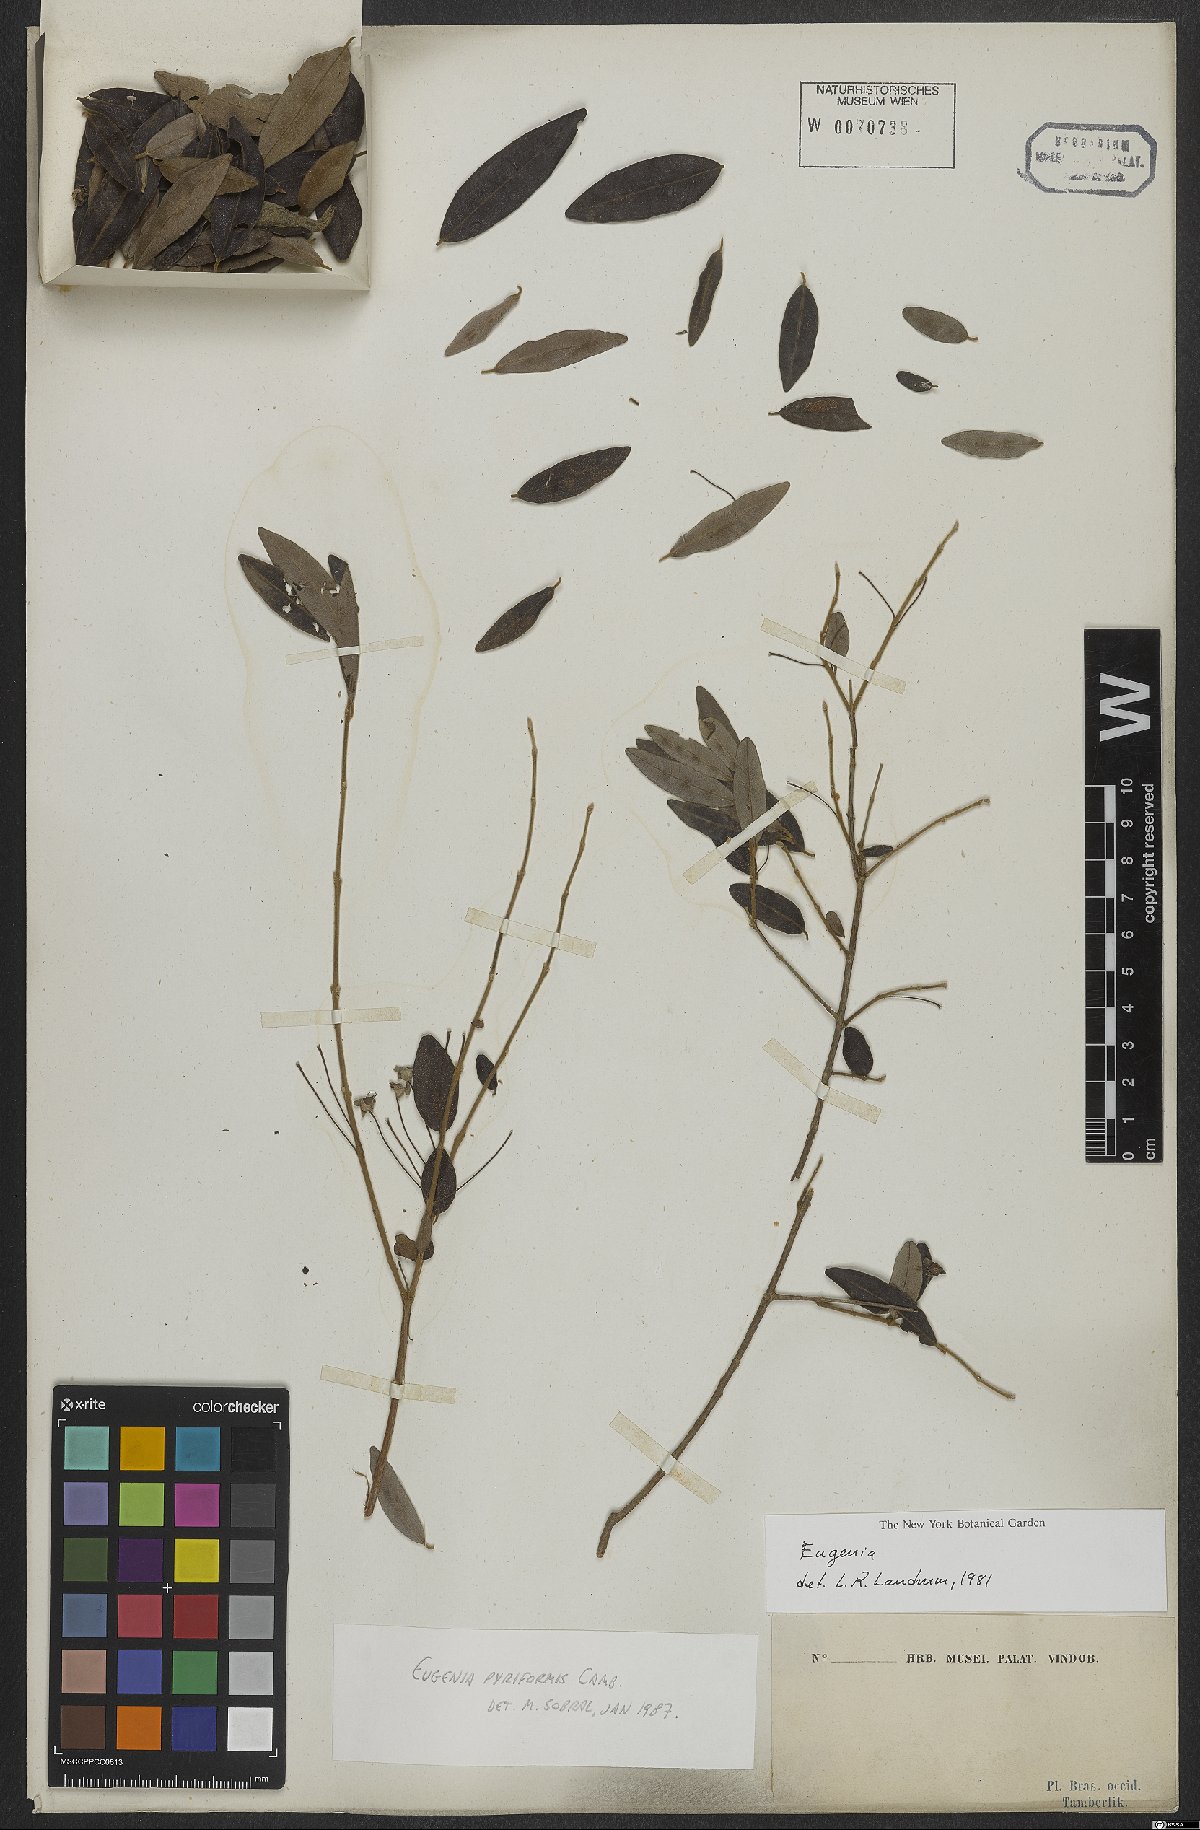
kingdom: Plantae
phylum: Tracheophyta
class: Magnoliopsida
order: Myrtales
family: Myrtaceae
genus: Eugenia
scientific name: Eugenia pyriformis
